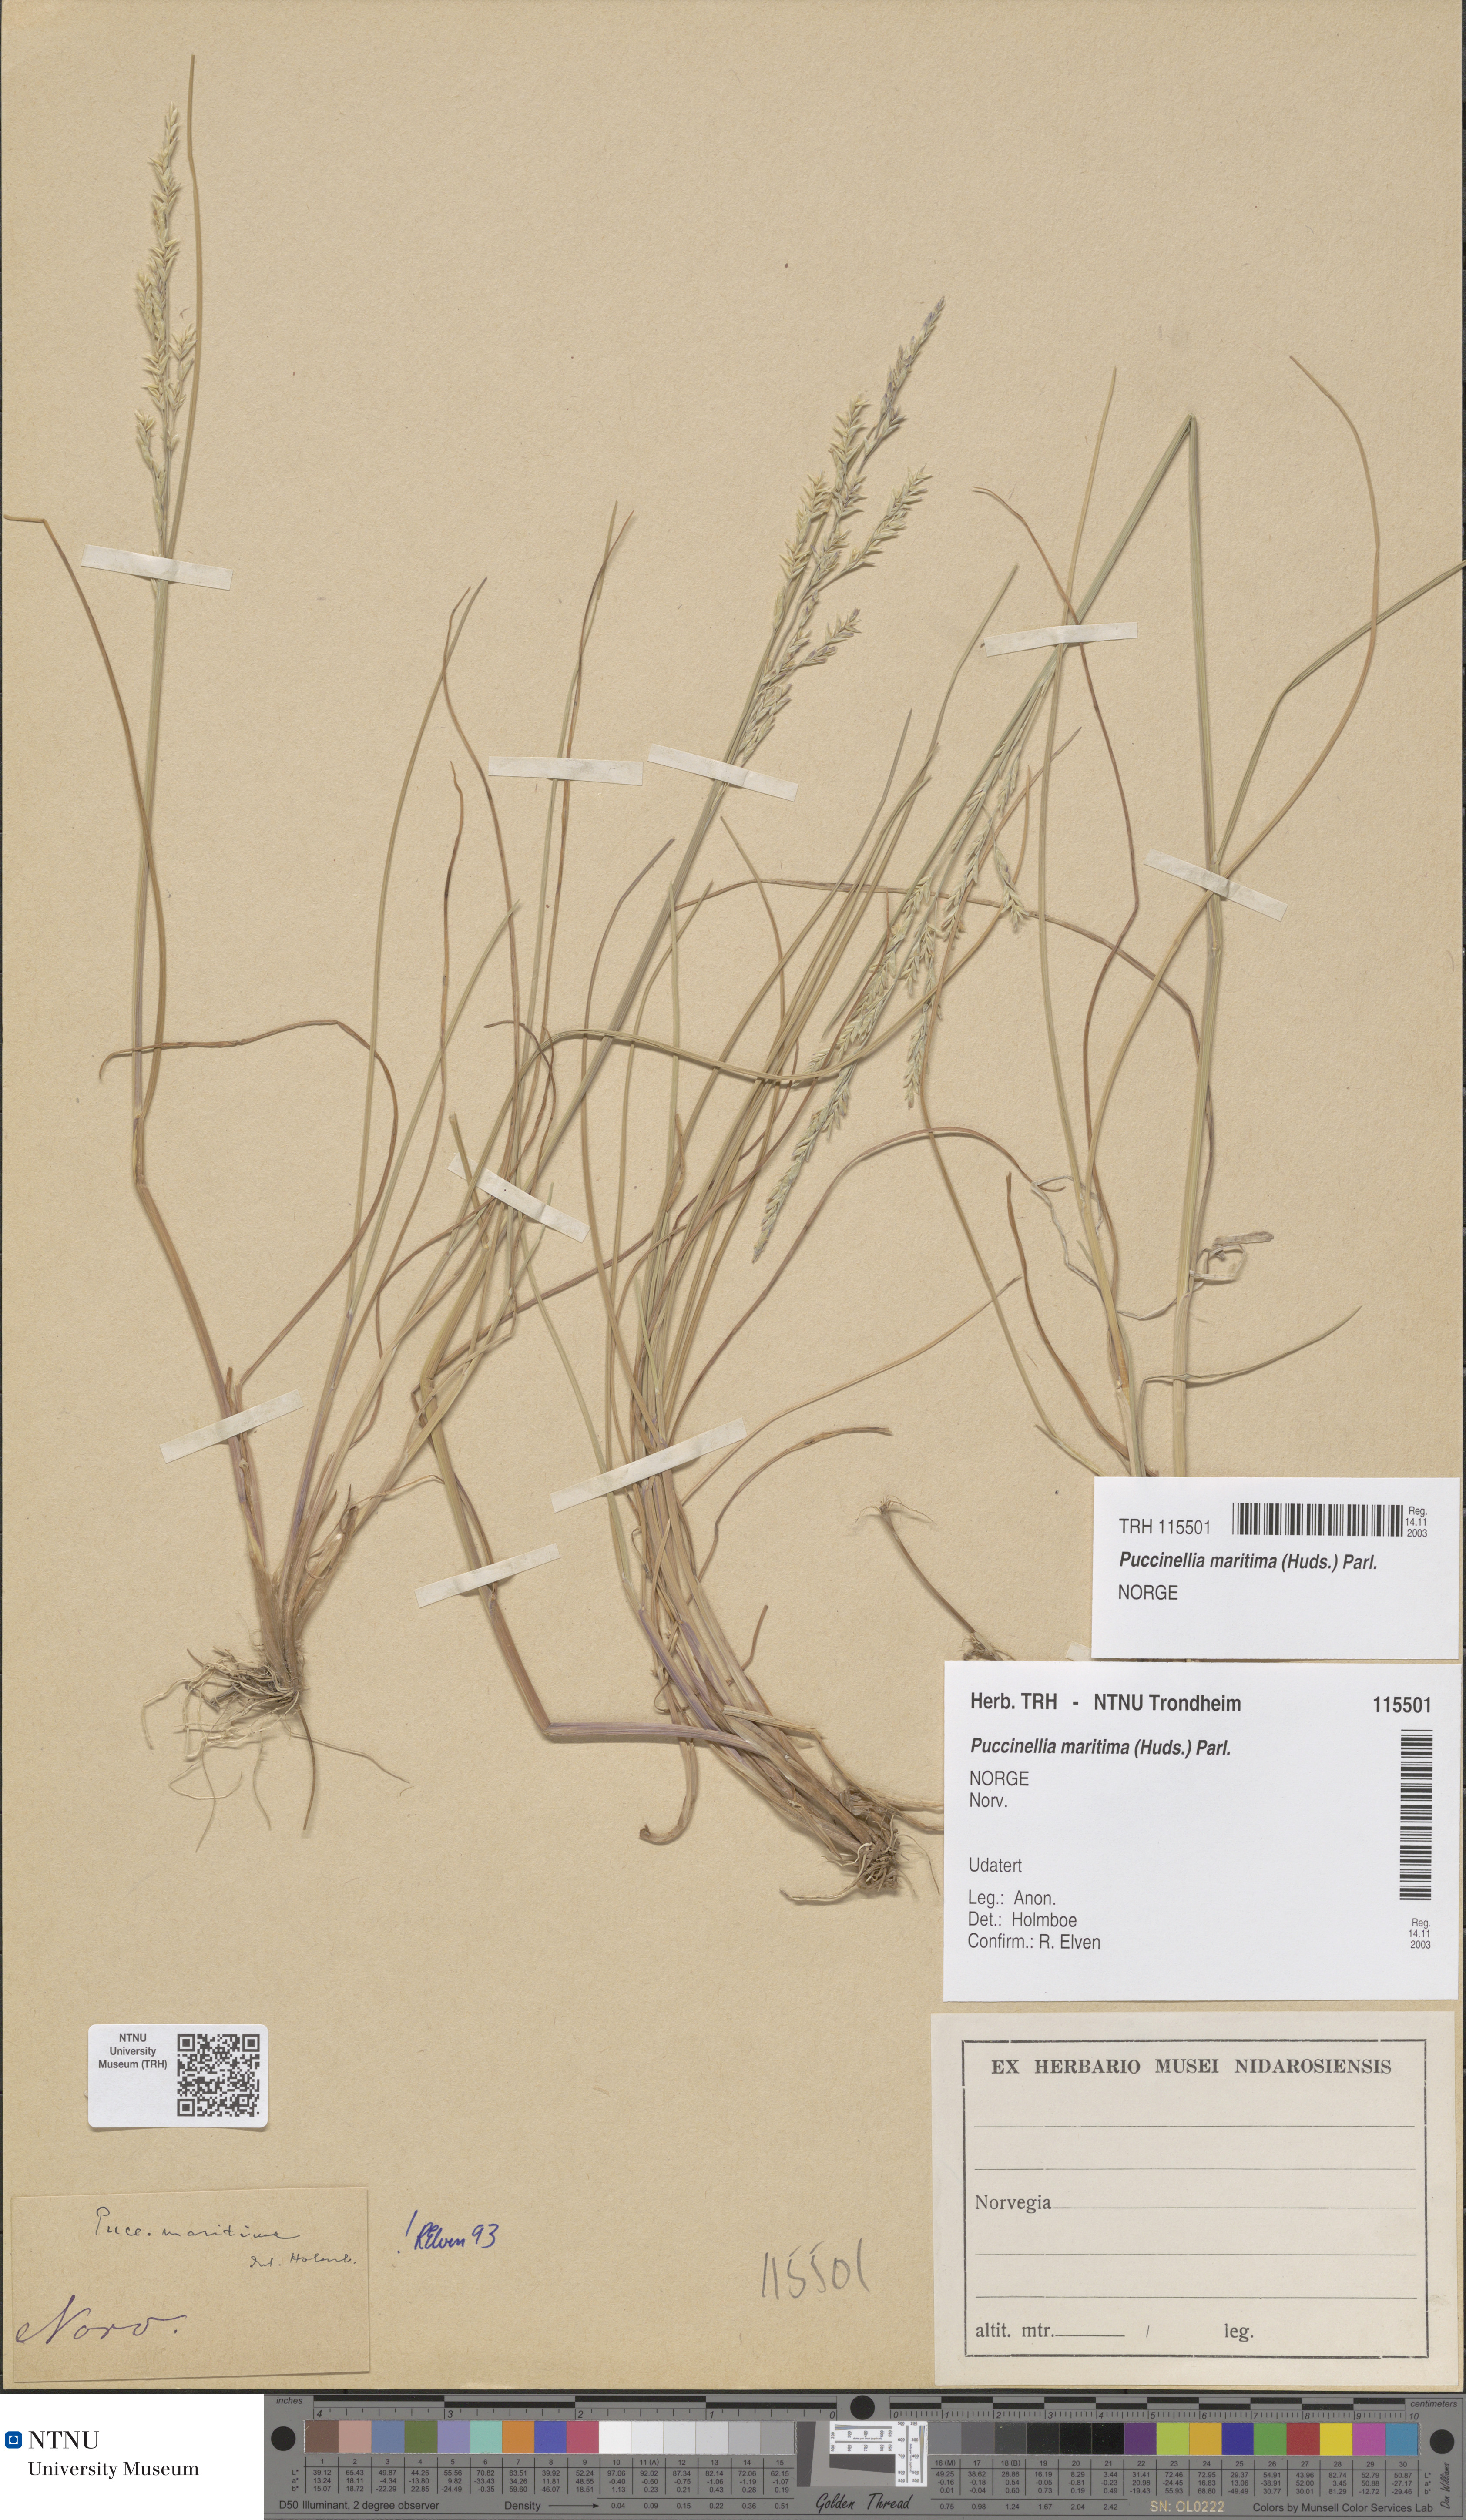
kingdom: Plantae
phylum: Tracheophyta
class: Liliopsida
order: Poales
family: Poaceae
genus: Puccinellia
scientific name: Puccinellia maritima
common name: Common saltmarsh grass
